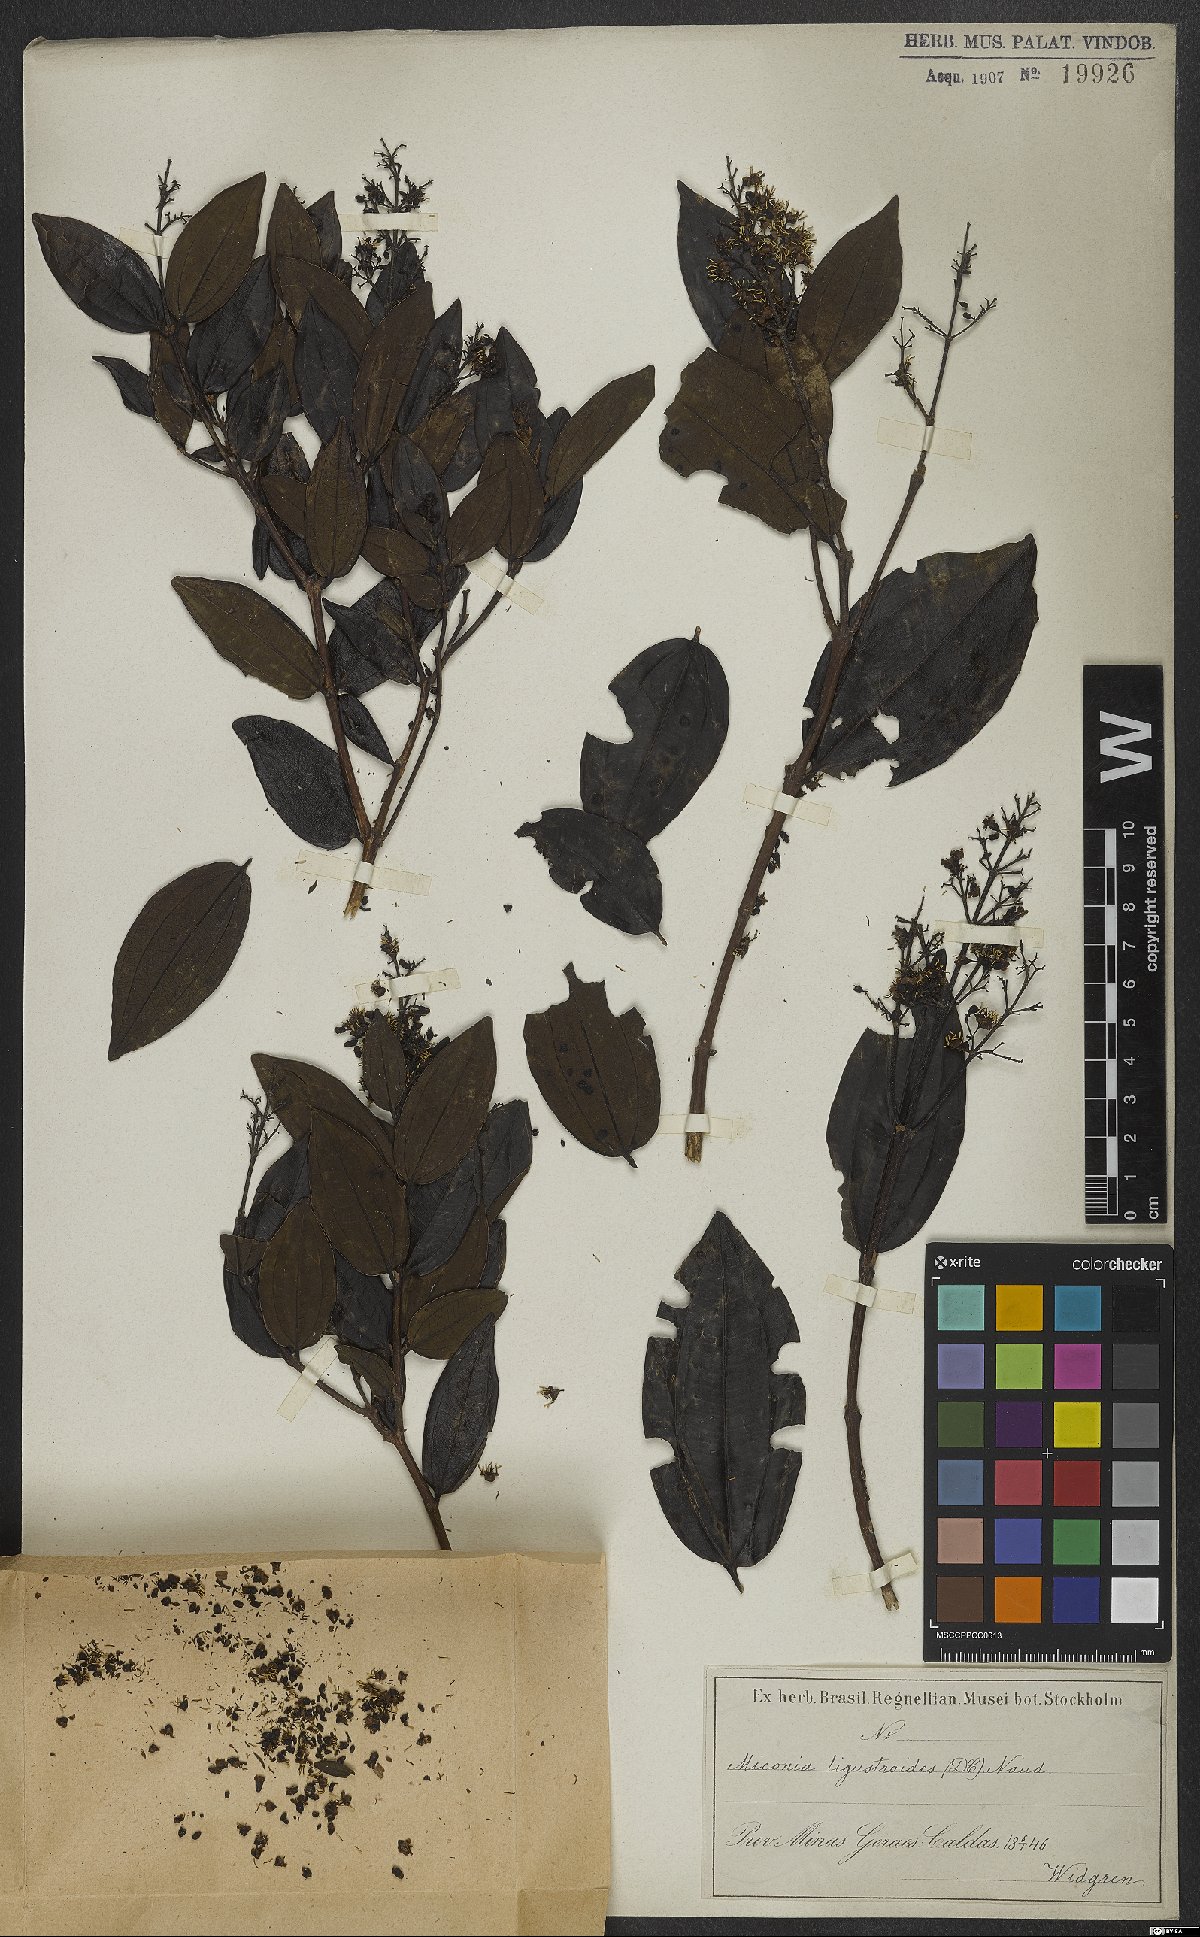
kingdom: Plantae
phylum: Tracheophyta
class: Magnoliopsida
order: Myrtales
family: Melastomataceae
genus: Miconia
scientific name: Miconia ligustroides
